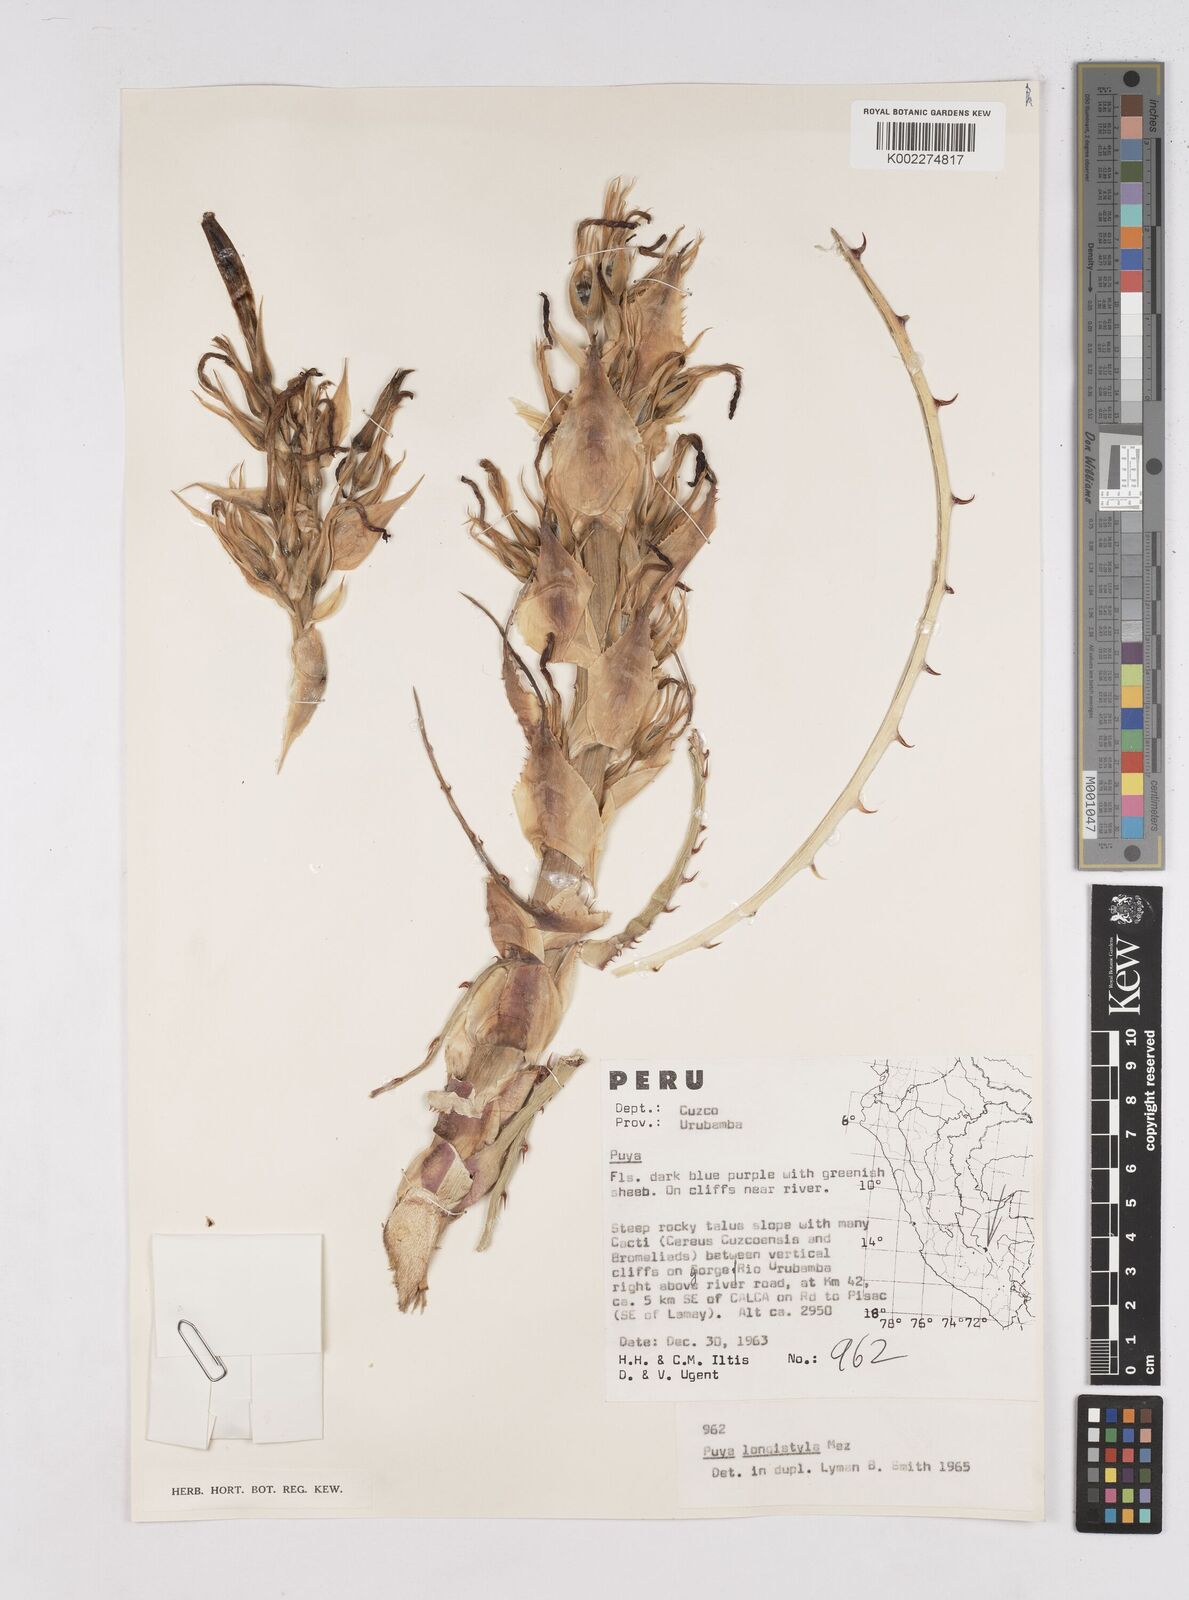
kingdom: Plantae
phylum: Tracheophyta
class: Liliopsida
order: Poales
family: Bromeliaceae
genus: Puya
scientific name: Puya longistyla
